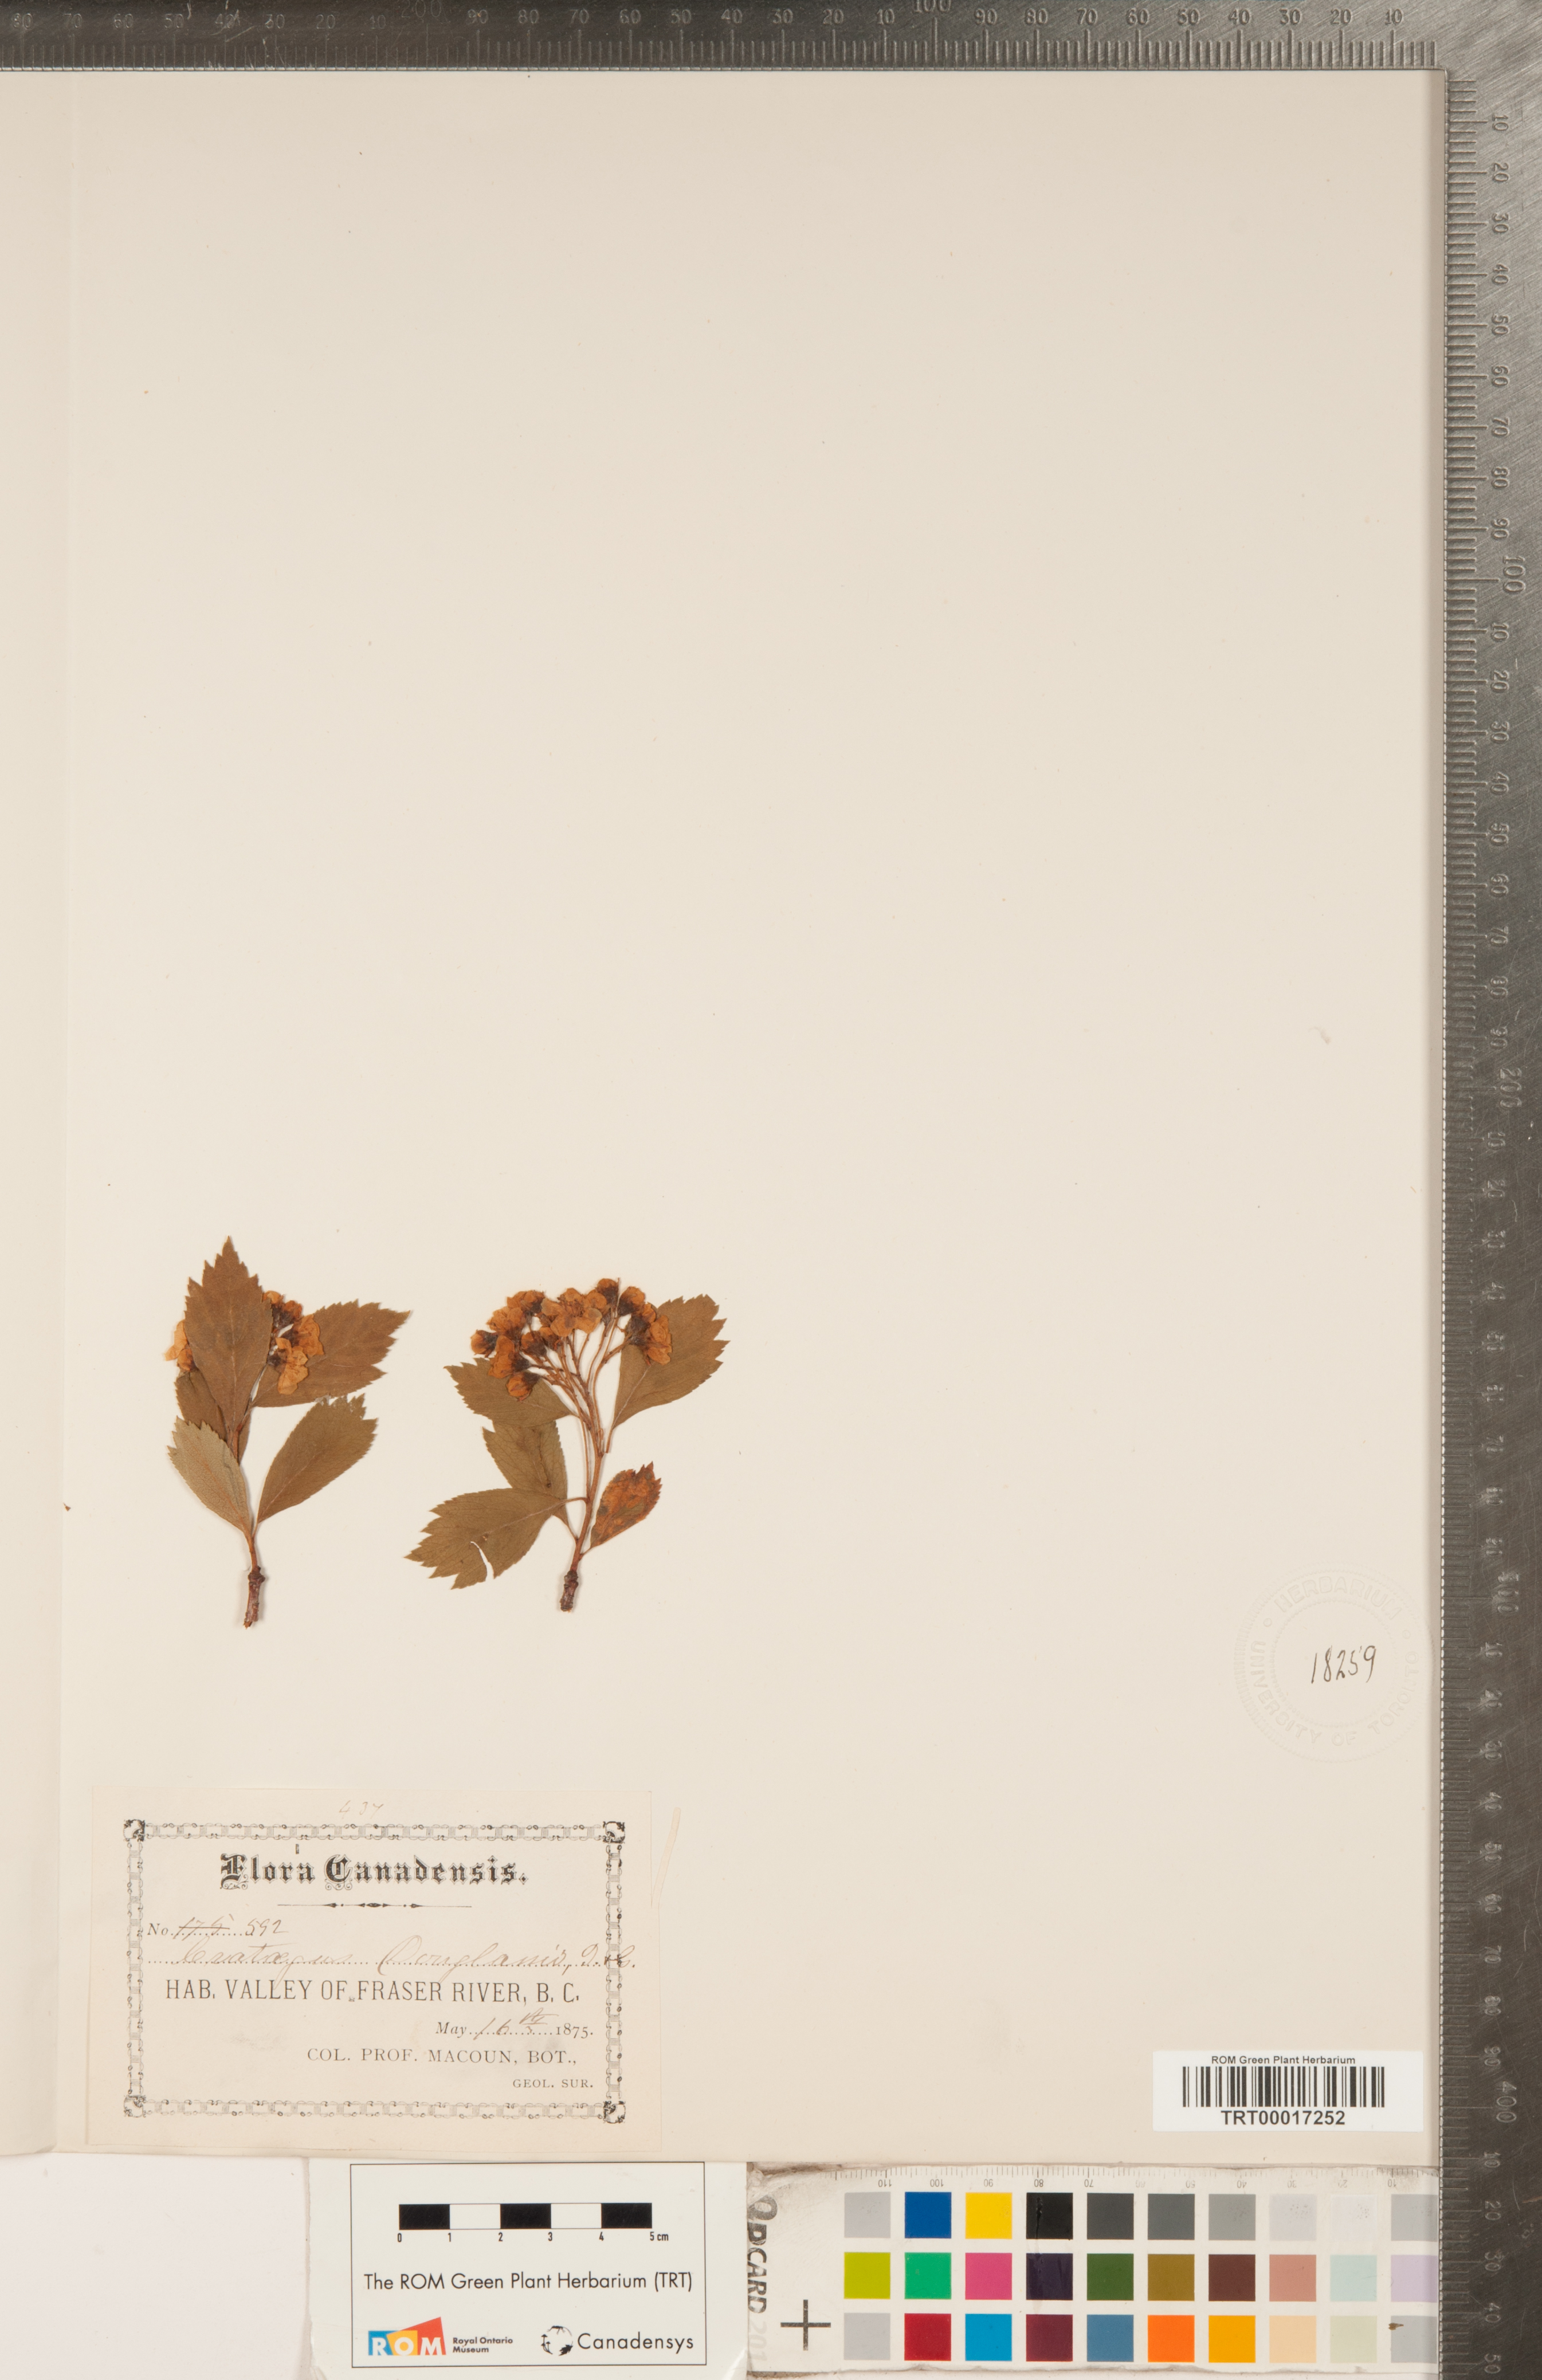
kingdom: Plantae
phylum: Tracheophyta
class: Magnoliopsida
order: Rosales
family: Rosaceae
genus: Crataegus
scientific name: Crataegus douglasii
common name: Black hawthorn
